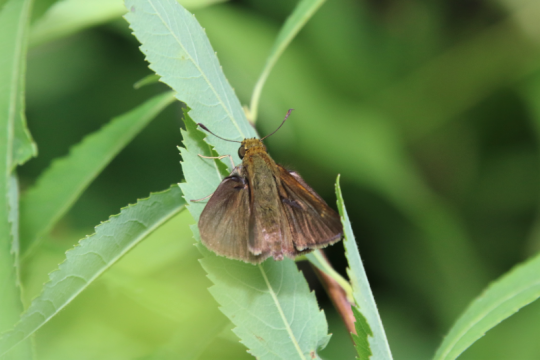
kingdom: Animalia
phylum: Arthropoda
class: Insecta
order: Lepidoptera
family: Hesperiidae
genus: Euphyes
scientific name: Euphyes vestris
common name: Dun Skipper
